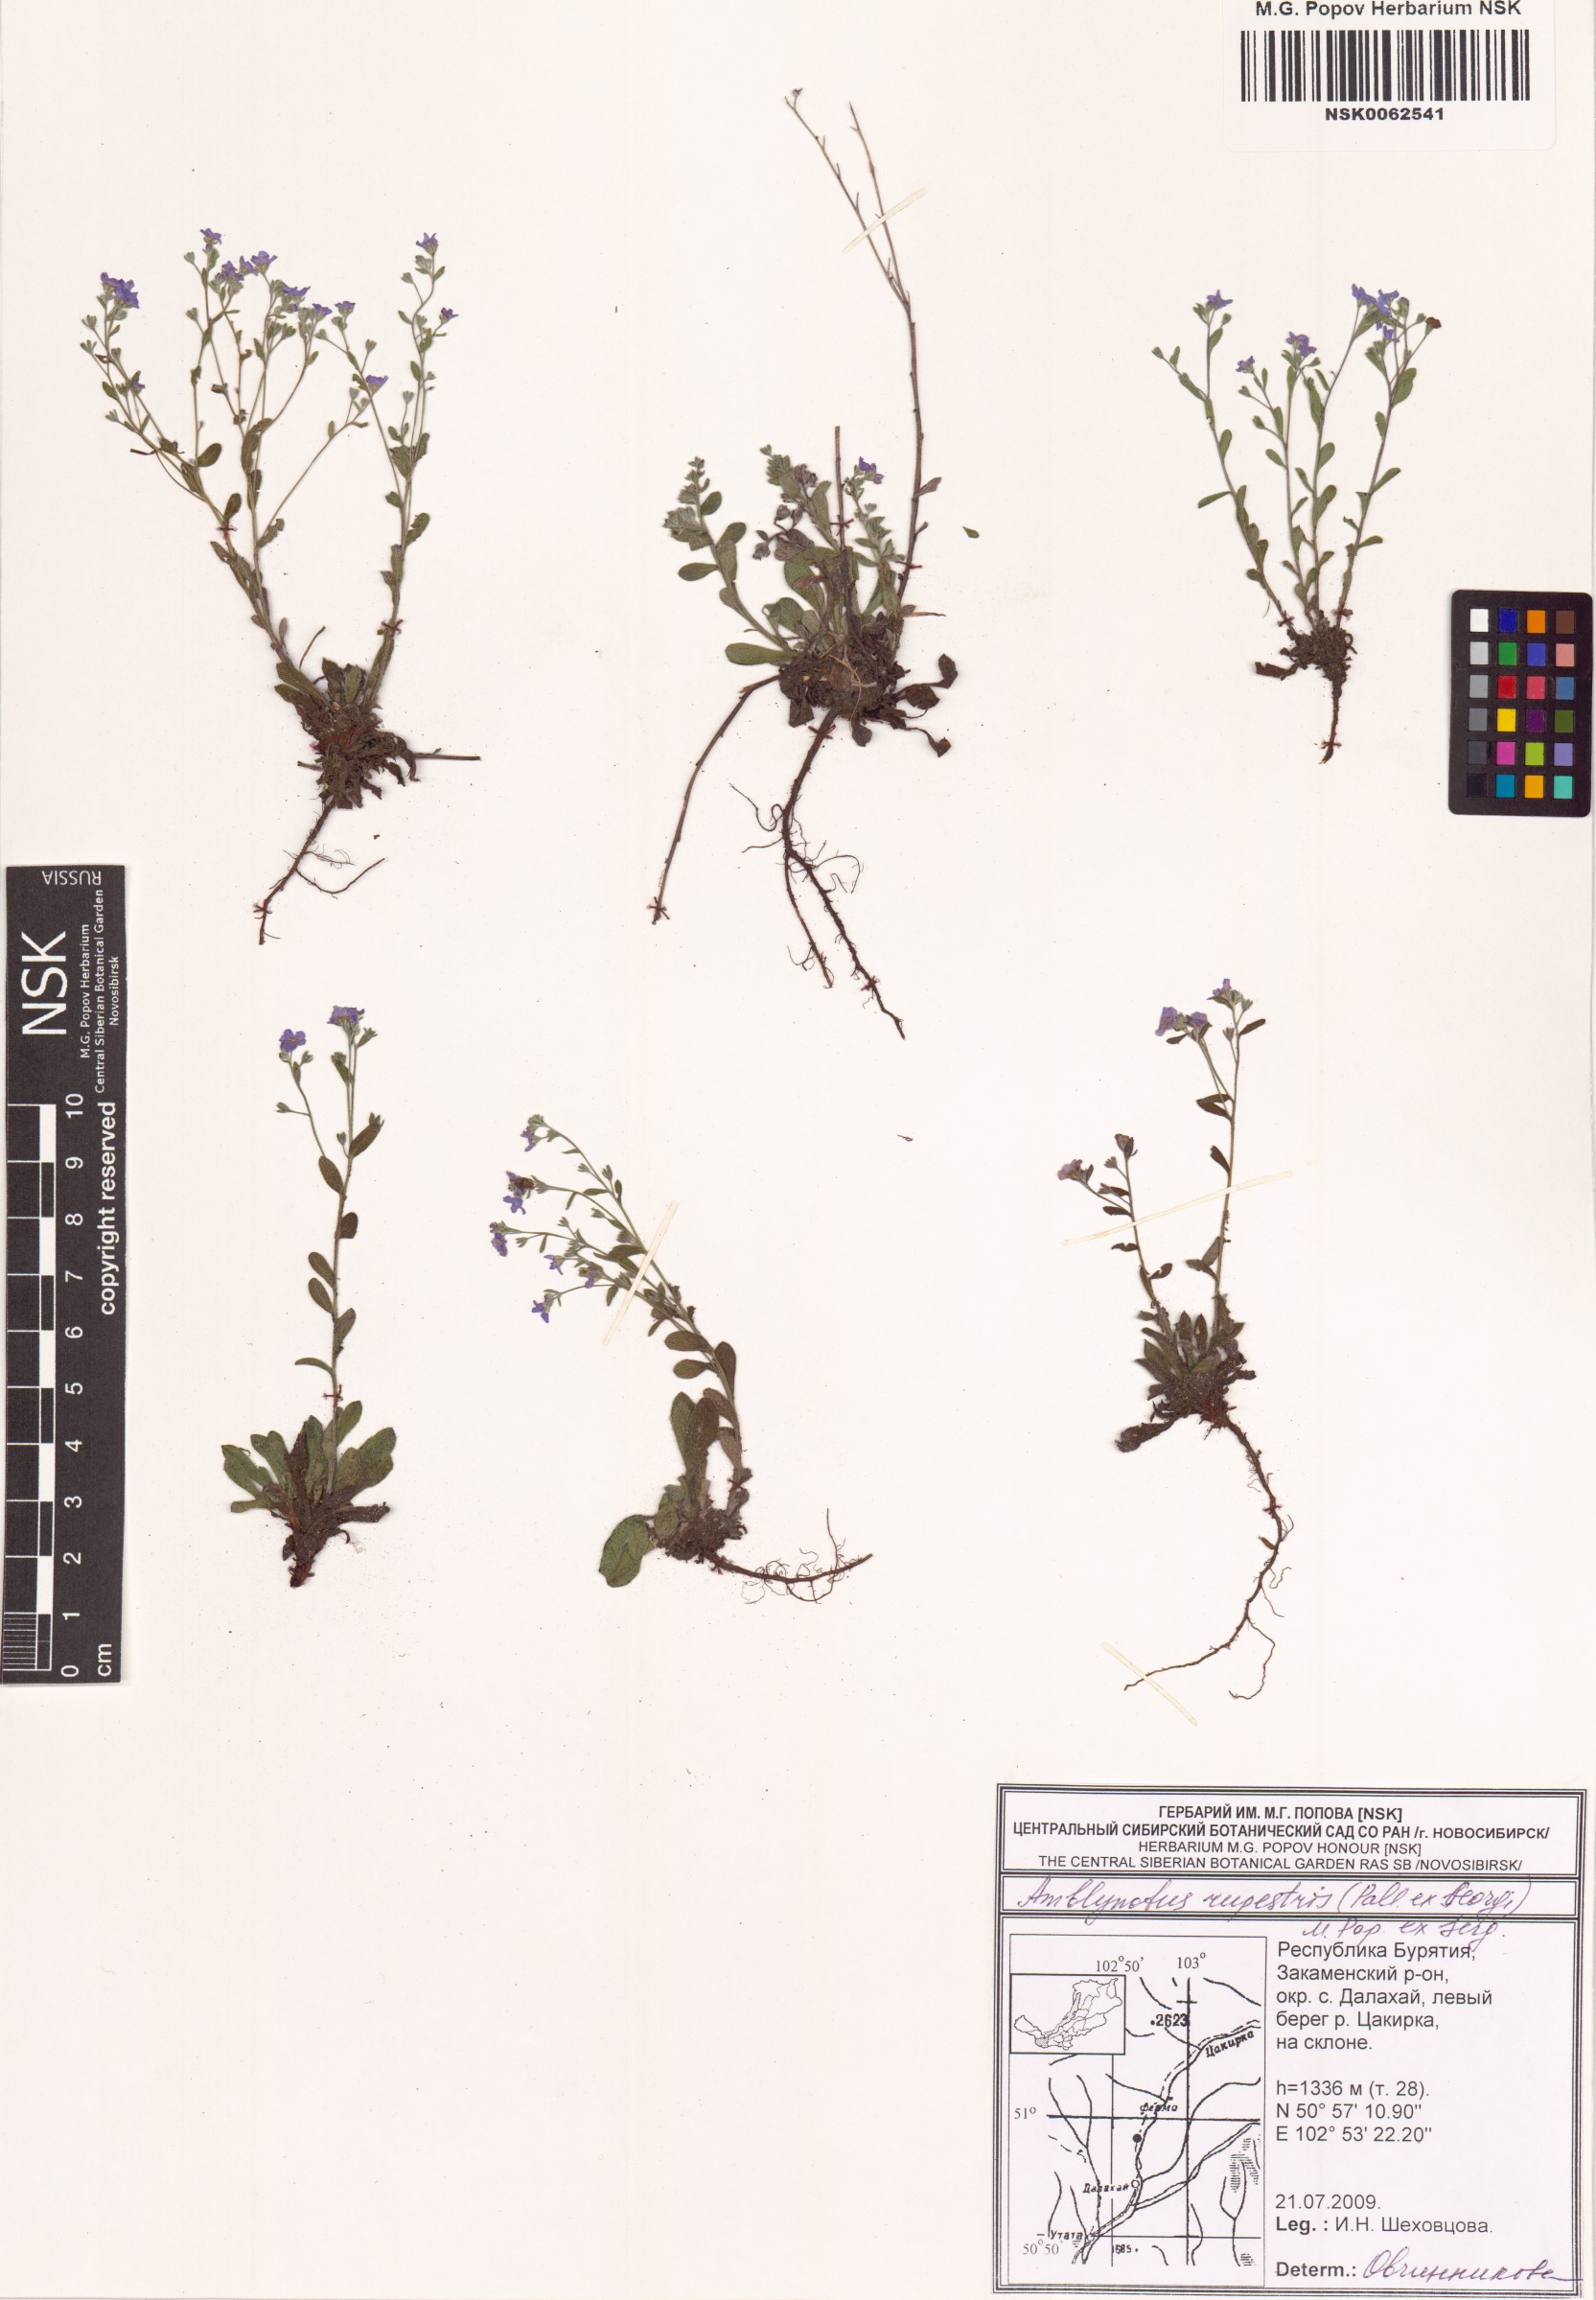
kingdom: Plantae
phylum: Tracheophyta
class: Magnoliopsida
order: Boraginales
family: Boraginaceae
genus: Eritrichium
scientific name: Eritrichium rupestre
